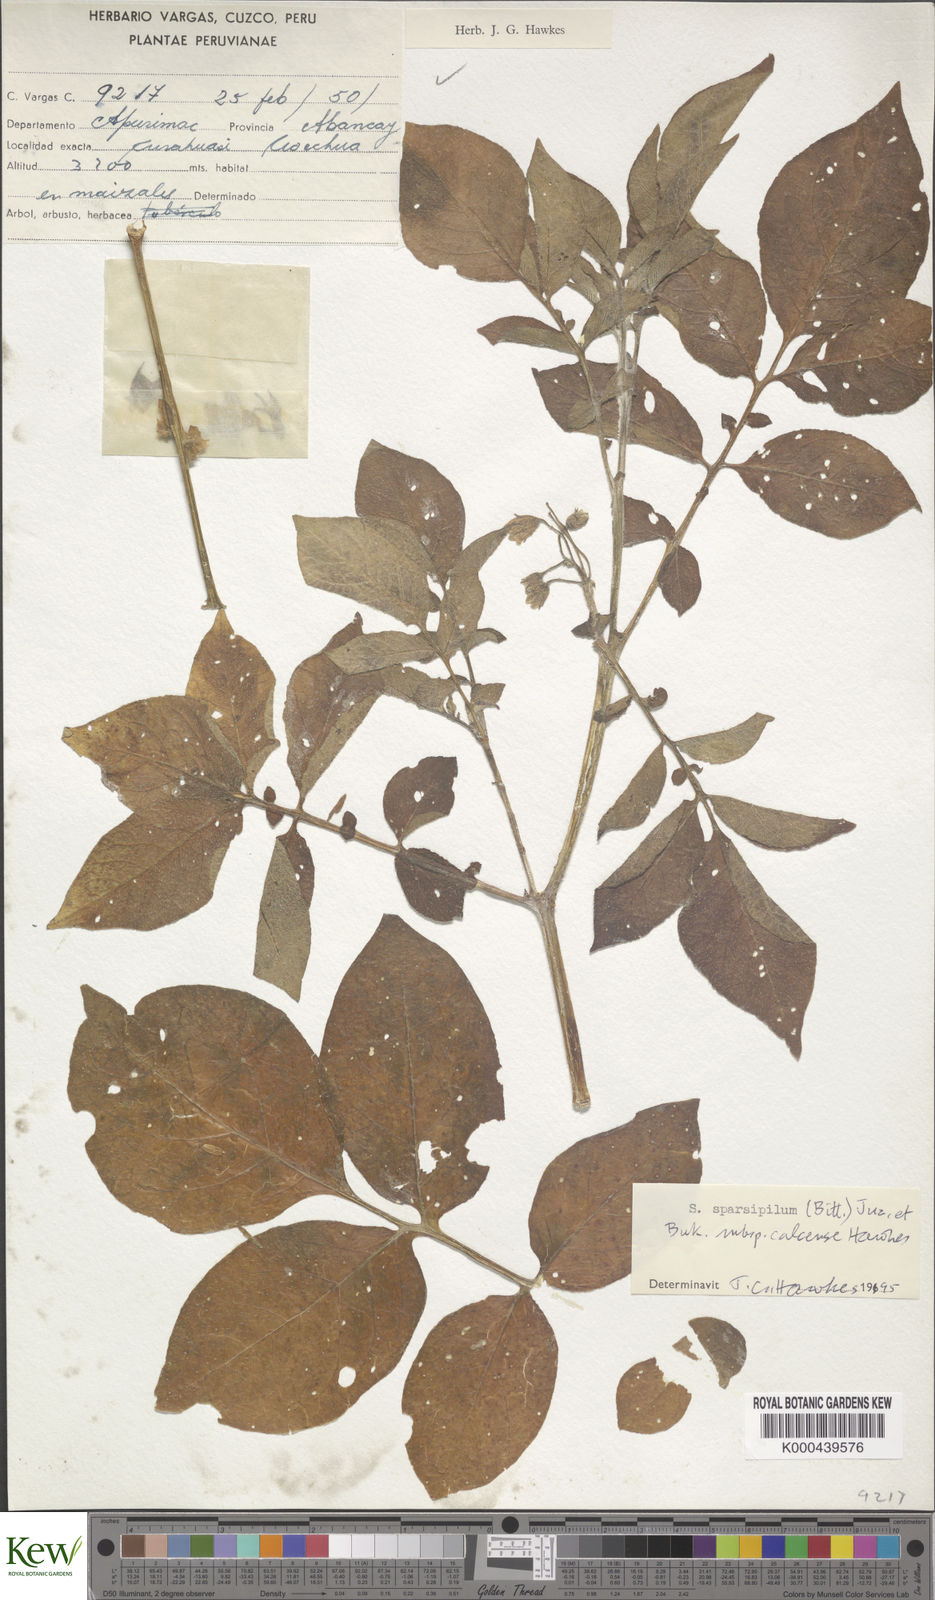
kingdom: Plantae
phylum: Tracheophyta
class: Magnoliopsida
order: Solanales
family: Solanaceae
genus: Solanum
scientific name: Solanum brevicaule
